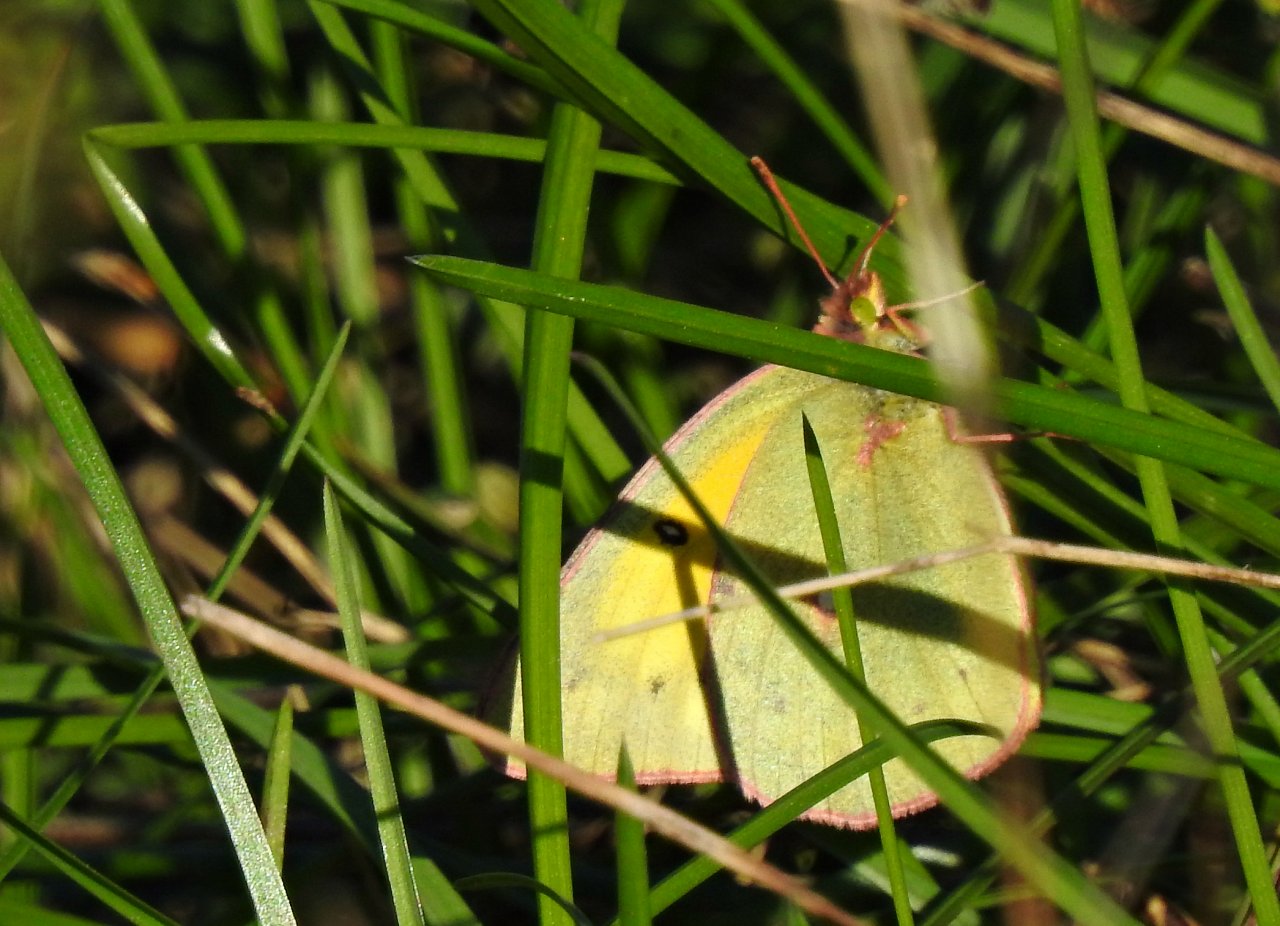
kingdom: Animalia
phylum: Arthropoda
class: Insecta
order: Lepidoptera
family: Pieridae
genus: Colias
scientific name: Colias eurytheme
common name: Orange Sulphur
